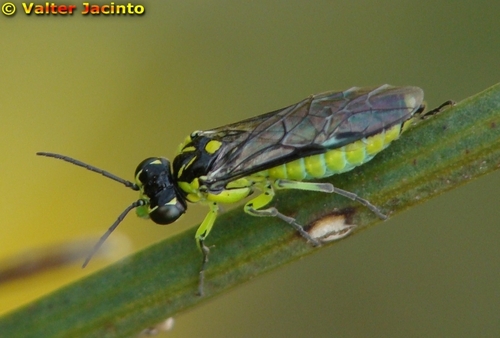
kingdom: Animalia
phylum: Arthropoda
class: Insecta
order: Hymenoptera
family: Tenthredinidae
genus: Rhogogaster
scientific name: Rhogogaster picta
